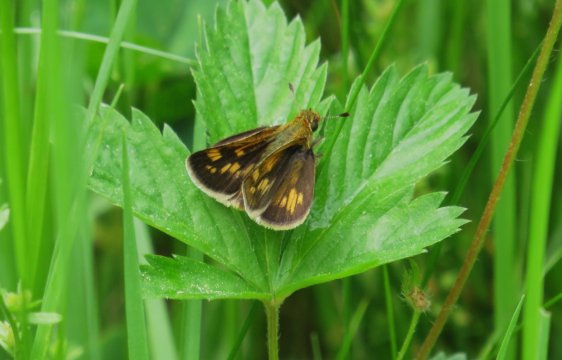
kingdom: Animalia
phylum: Arthropoda
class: Insecta
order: Lepidoptera
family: Hesperiidae
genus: Polites
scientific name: Polites coras
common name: Peck's Skipper
